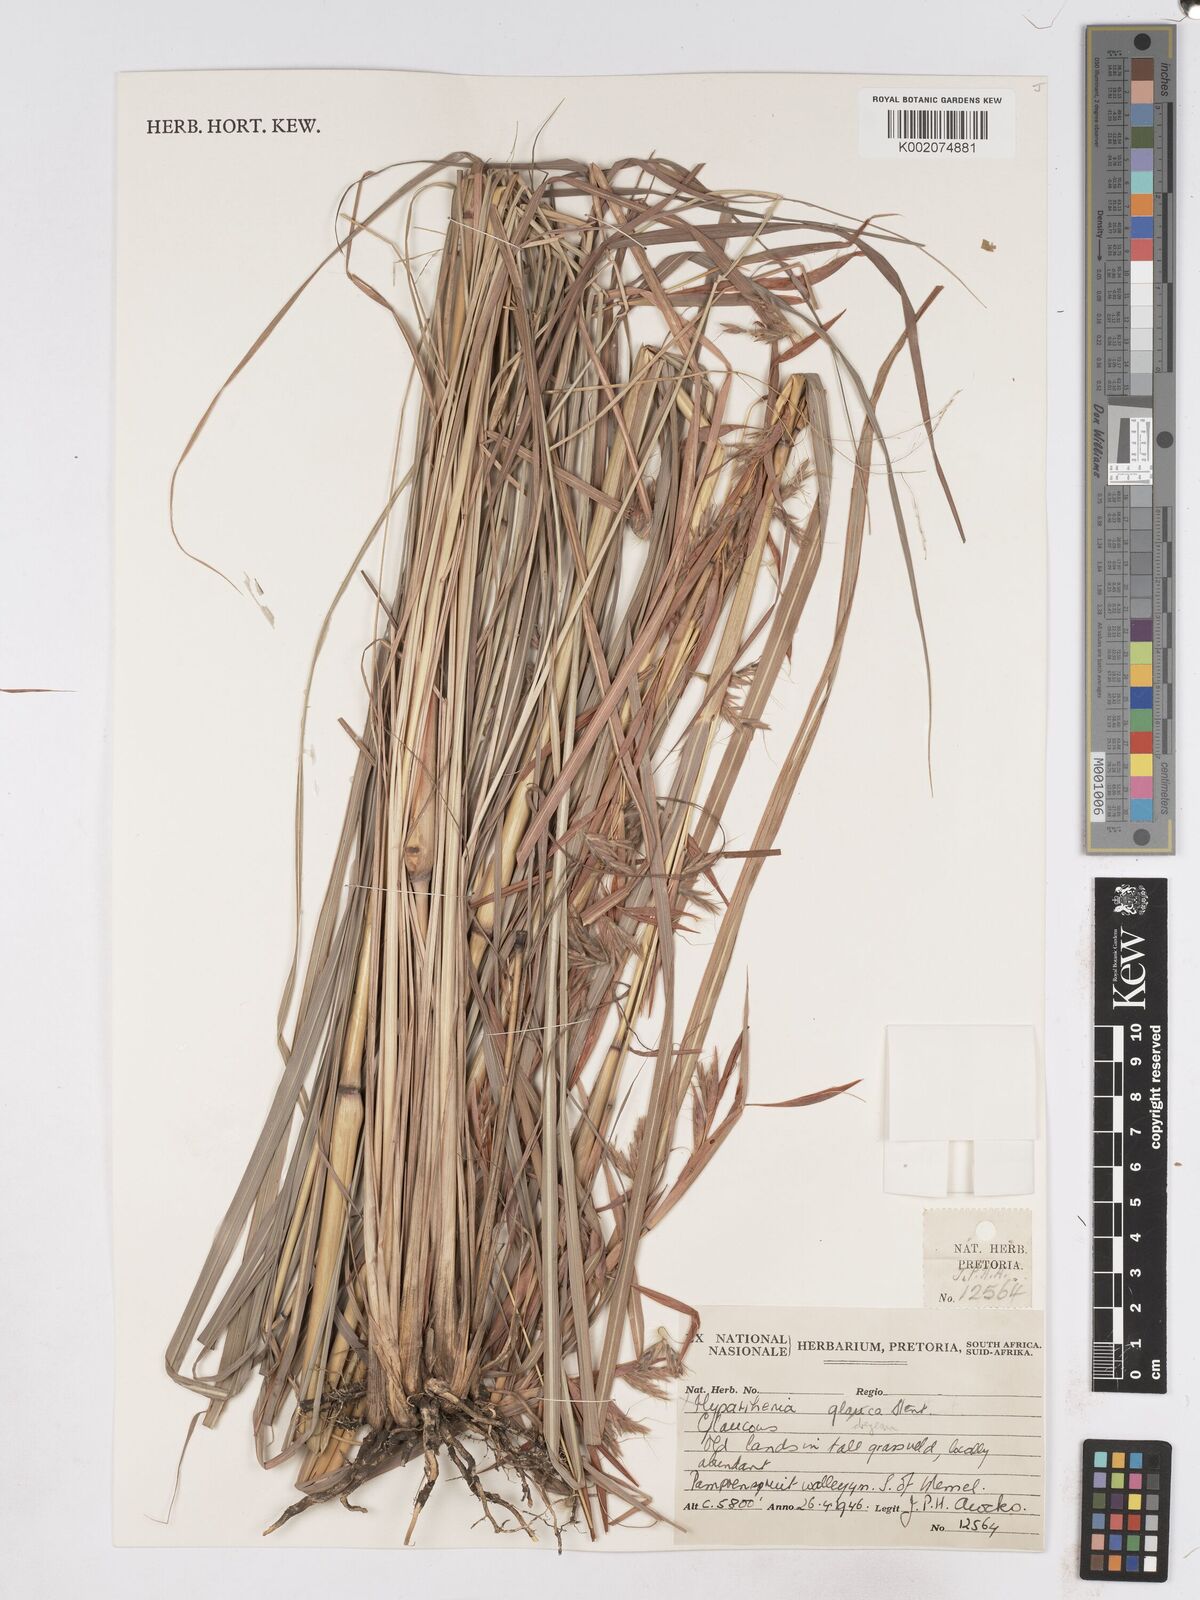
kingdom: Plantae
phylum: Tracheophyta
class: Liliopsida
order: Poales
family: Poaceae
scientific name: Poaceae
